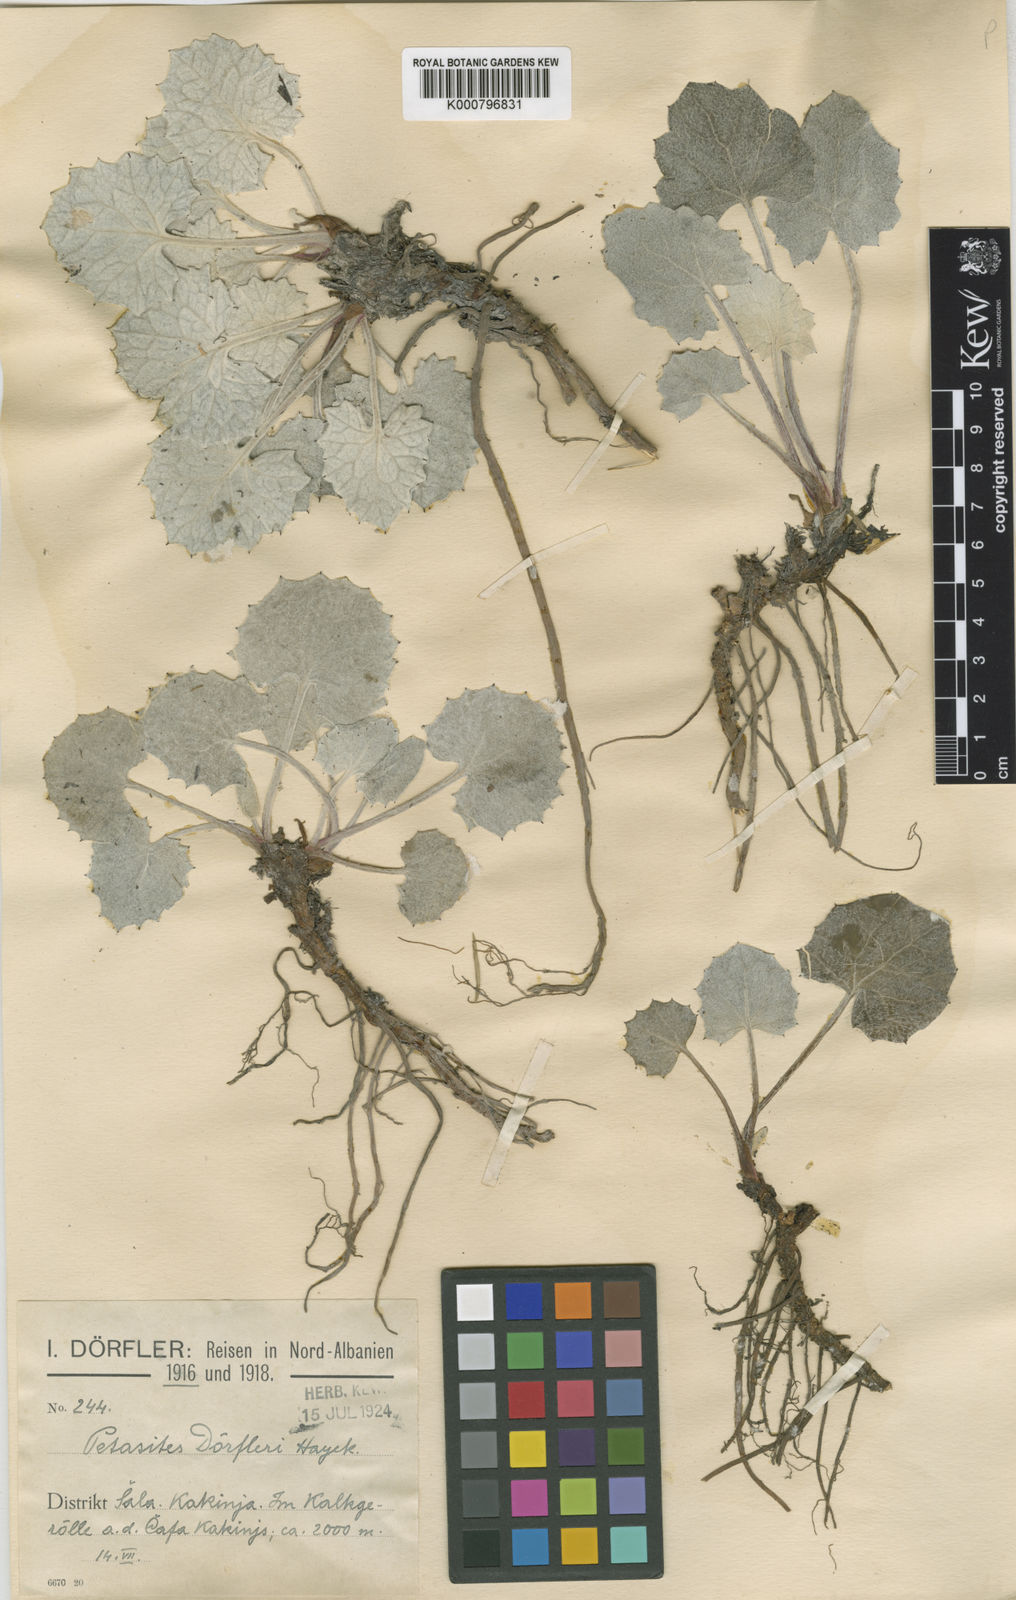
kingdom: Plantae
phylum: Tracheophyta
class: Magnoliopsida
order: Asterales
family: Asteraceae
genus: Petasites
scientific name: Petasites
